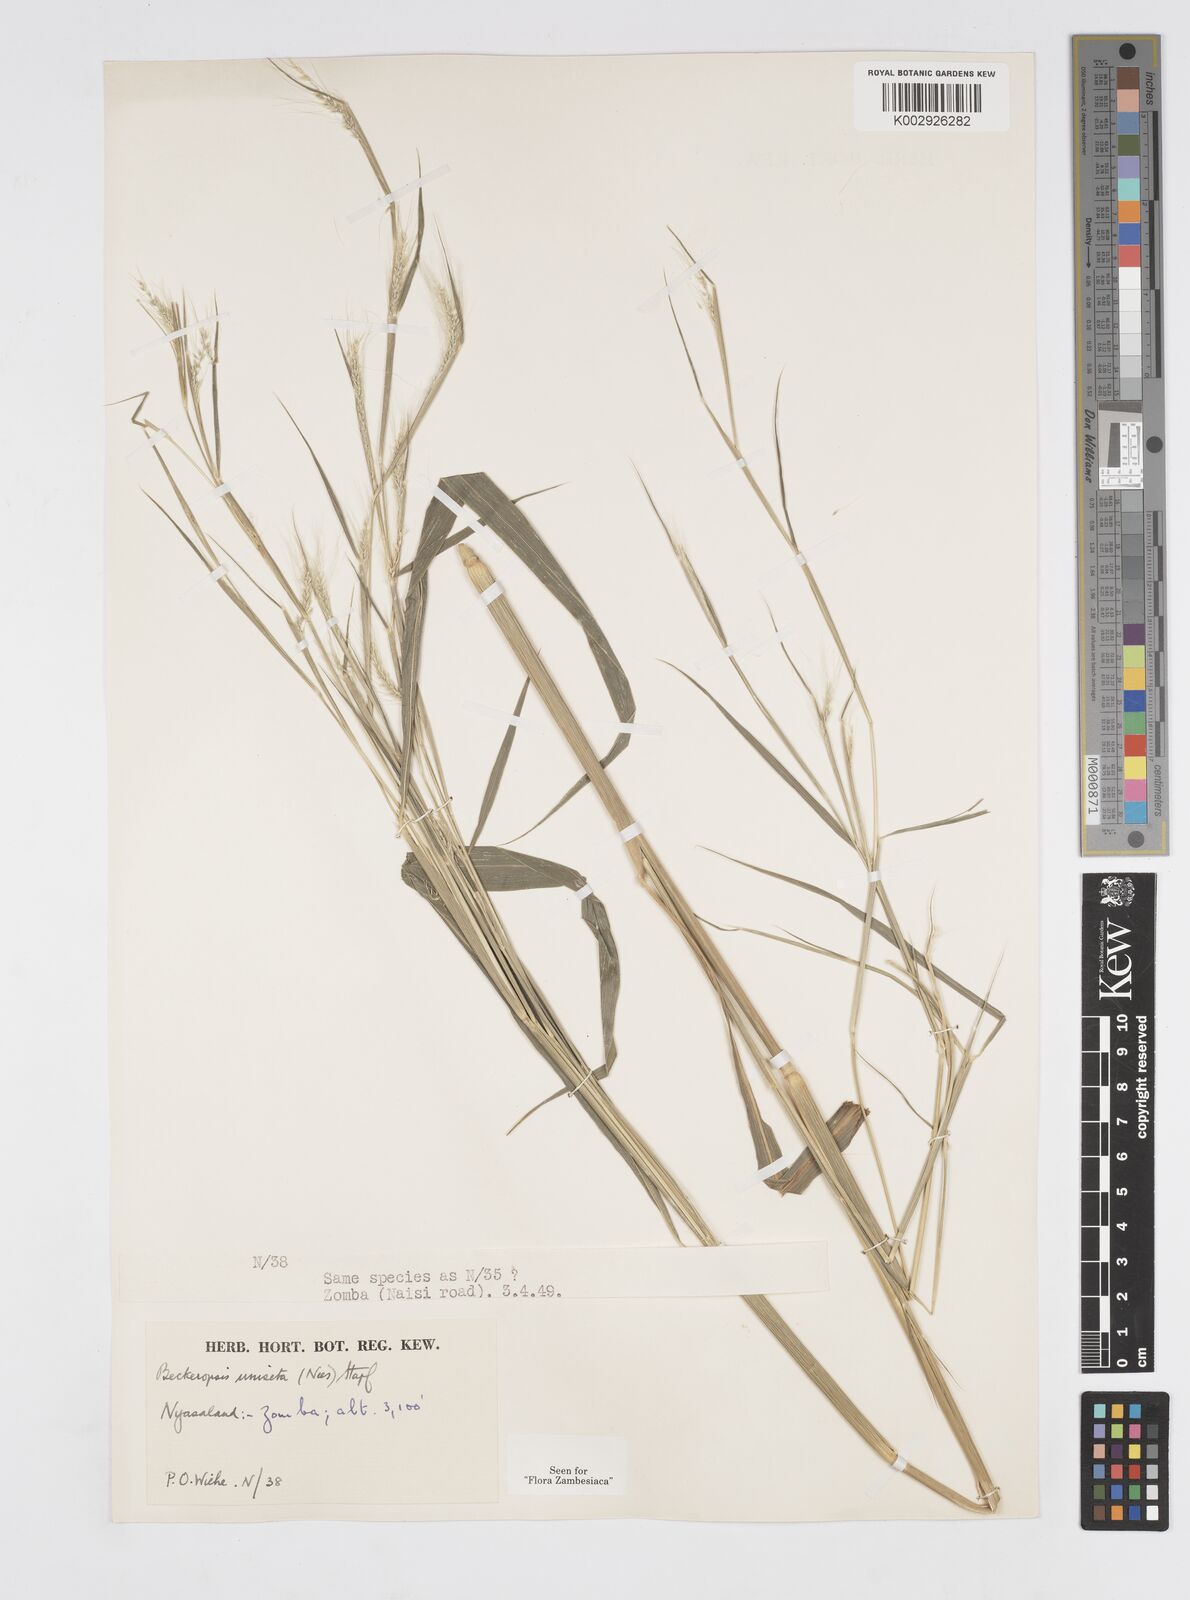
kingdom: Plantae
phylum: Tracheophyta
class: Liliopsida
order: Poales
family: Poaceae
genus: Cenchrus
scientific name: Cenchrus unisetus
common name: Natal grass
